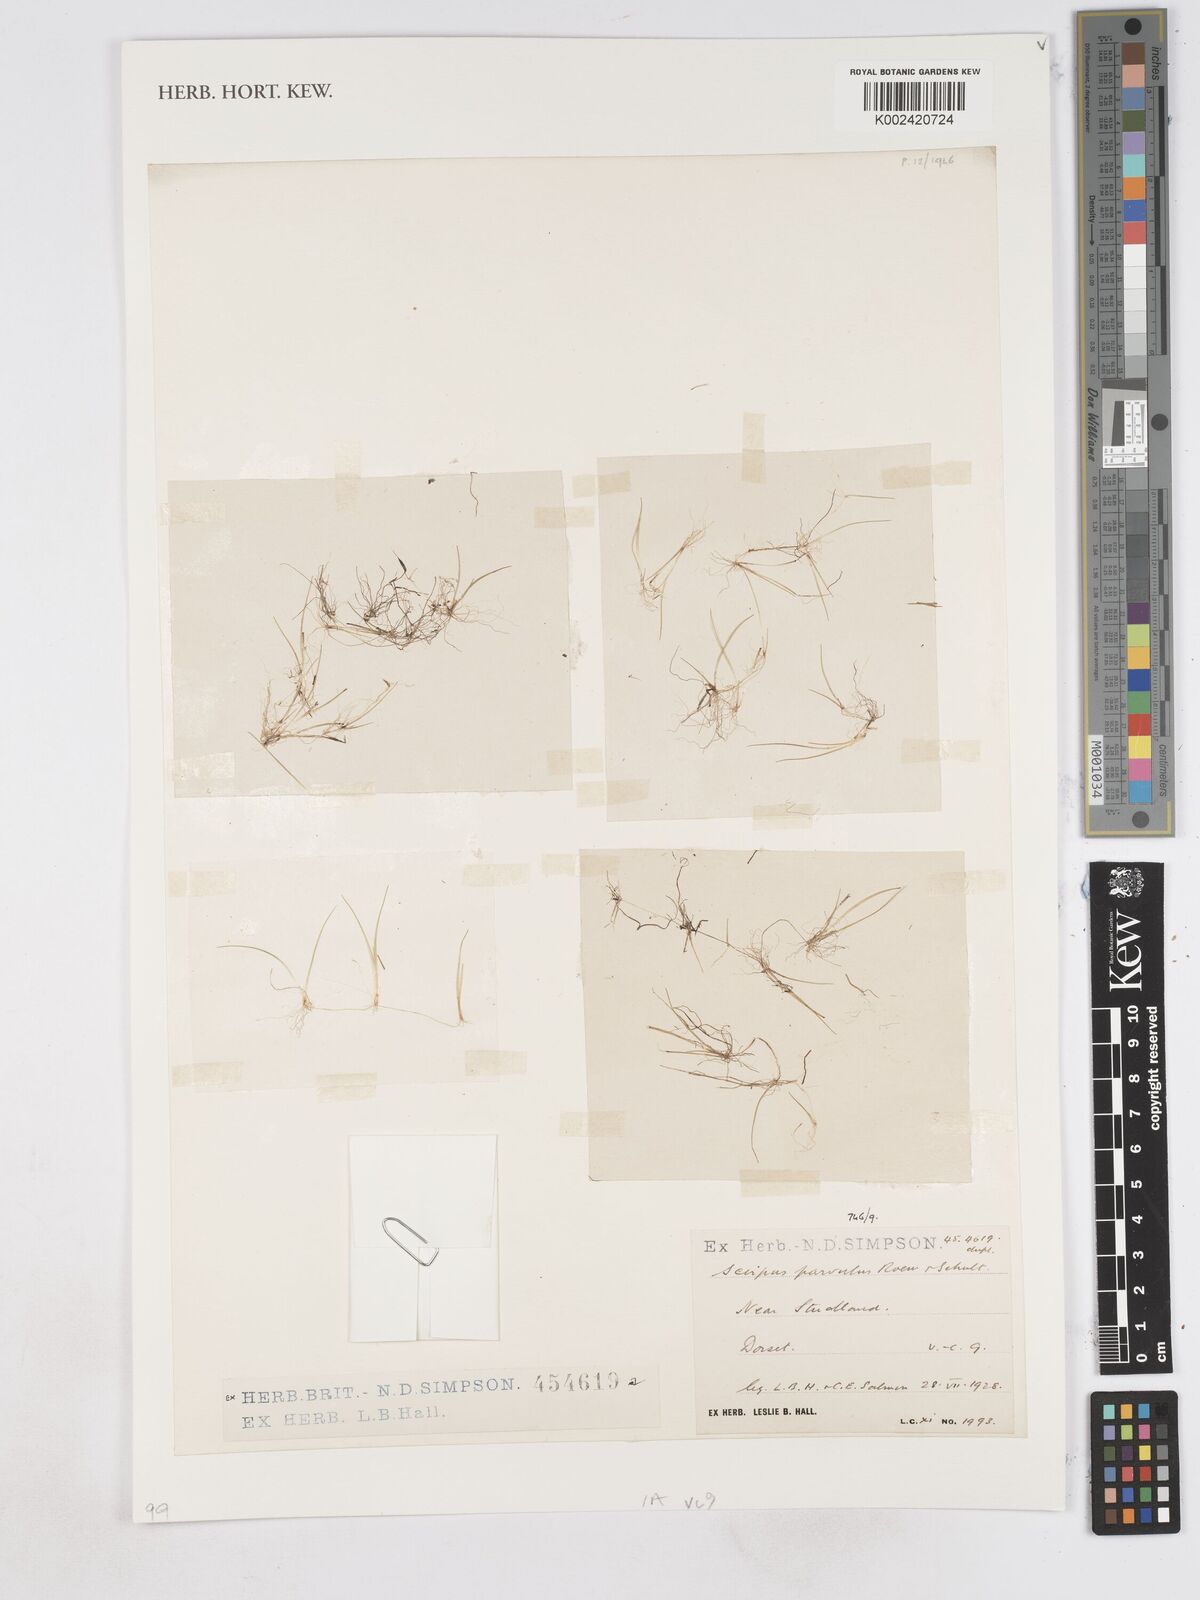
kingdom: Plantae
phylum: Tracheophyta
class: Liliopsida
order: Poales
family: Cyperaceae
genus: Eleocharis
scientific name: Eleocharis parvula
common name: Dwarf spike-rush
